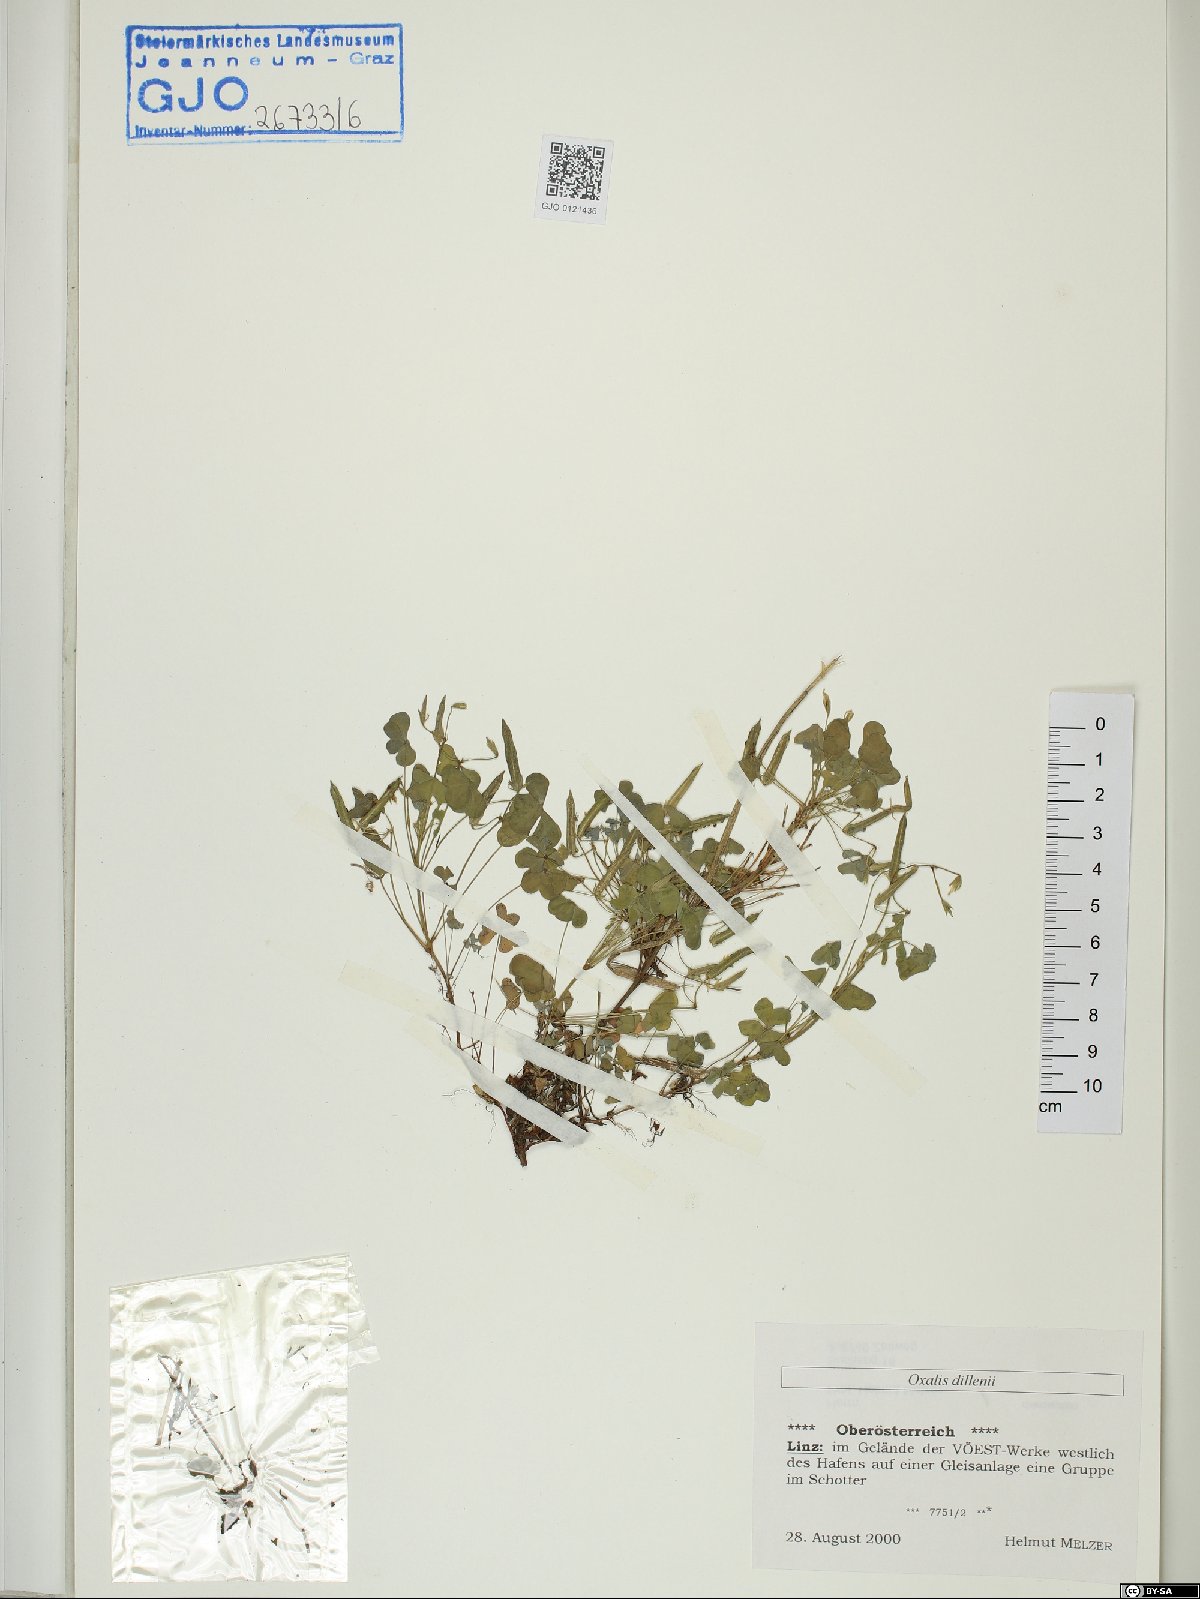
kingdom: Plantae
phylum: Tracheophyta
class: Magnoliopsida
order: Oxalidales
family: Oxalidaceae
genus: Oxalis
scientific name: Oxalis dillenii
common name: Sussex yellow-sorrel
